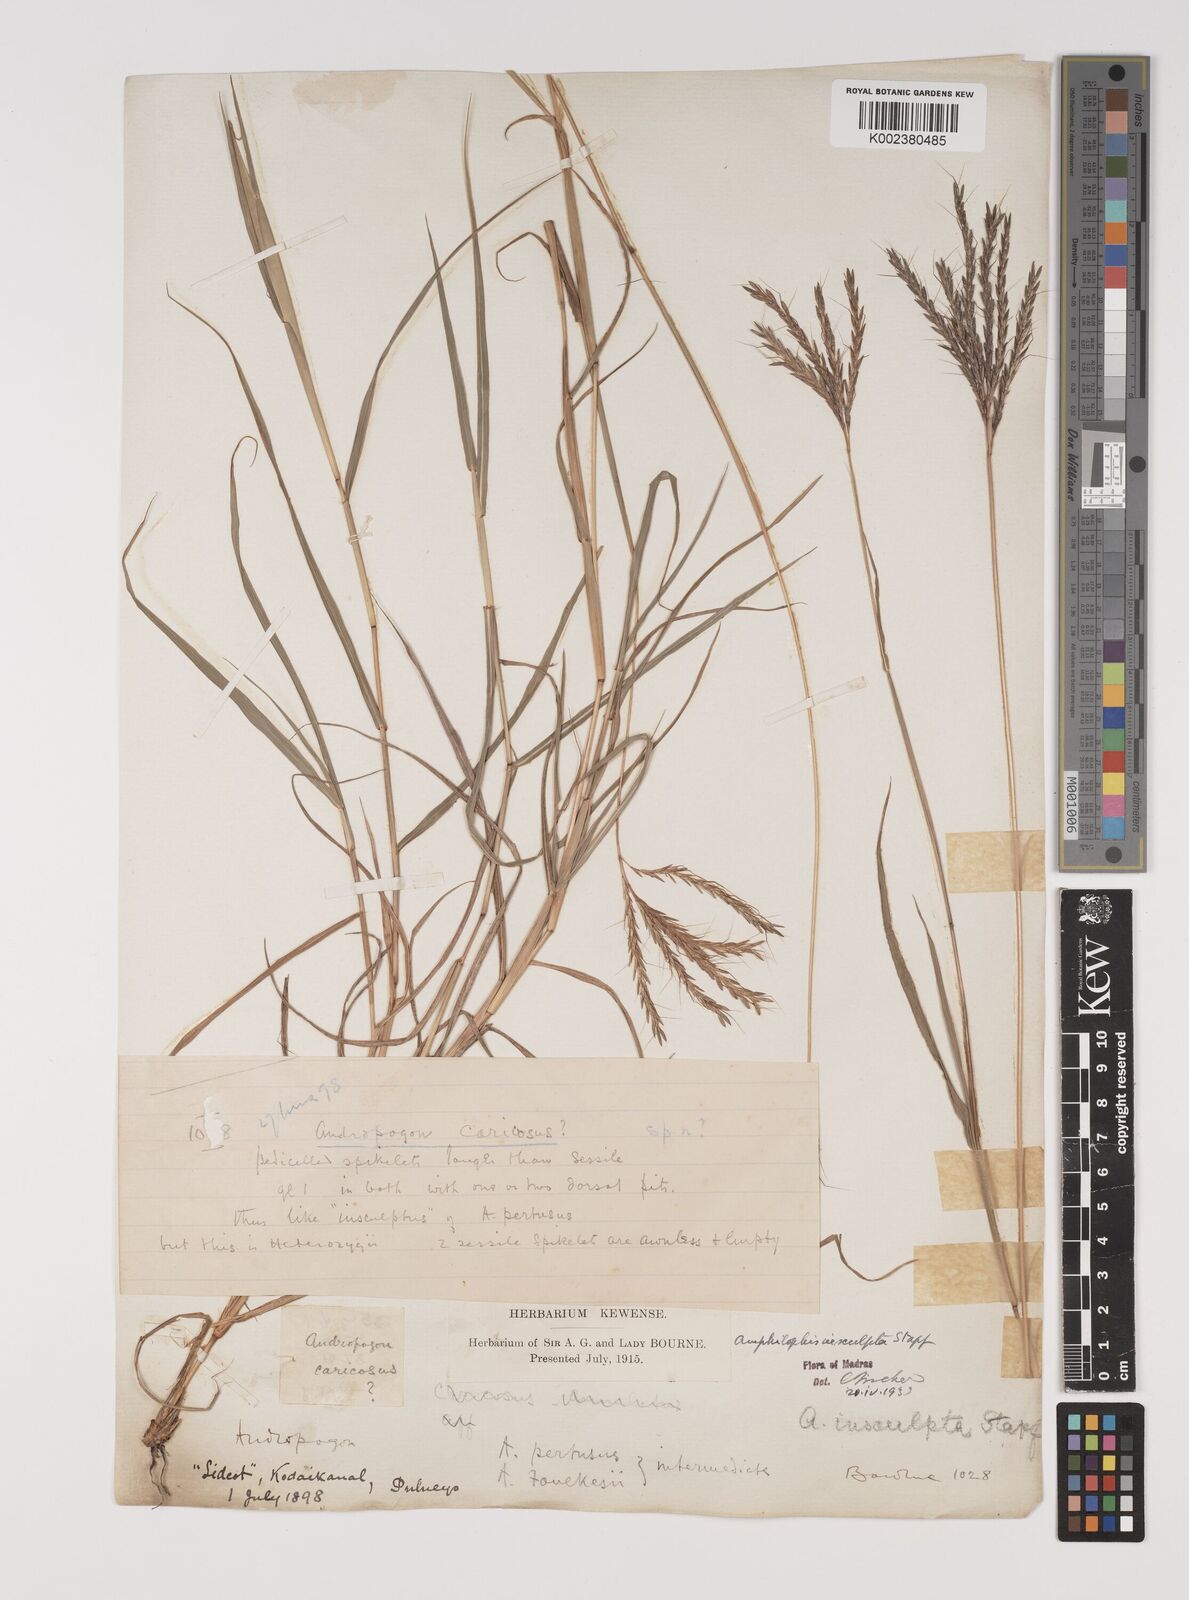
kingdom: Plantae
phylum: Tracheophyta
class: Liliopsida
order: Poales
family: Poaceae
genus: Bothriochloa
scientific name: Bothriochloa insculpta
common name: Creeping-bluegrass
